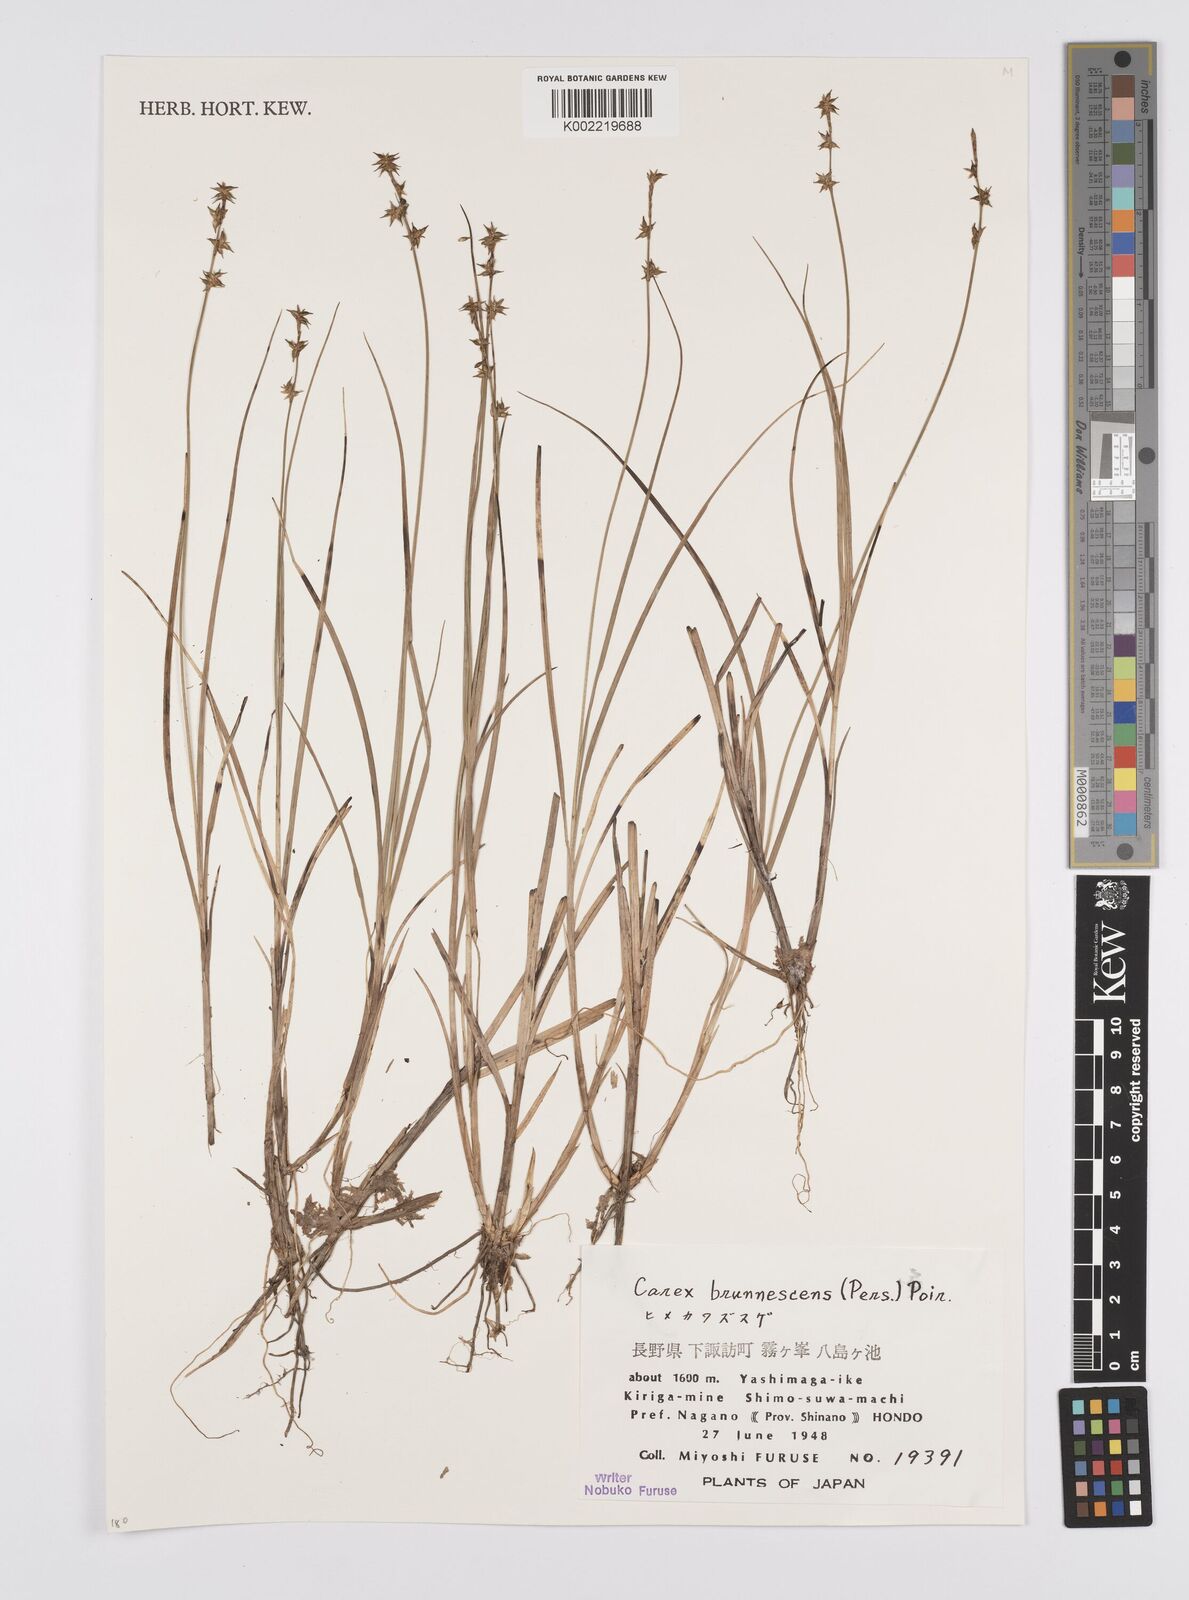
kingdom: Plantae
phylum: Tracheophyta
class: Liliopsida
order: Poales
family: Cyperaceae
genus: Carex
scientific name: Carex brunnescens
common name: Brown sedge
